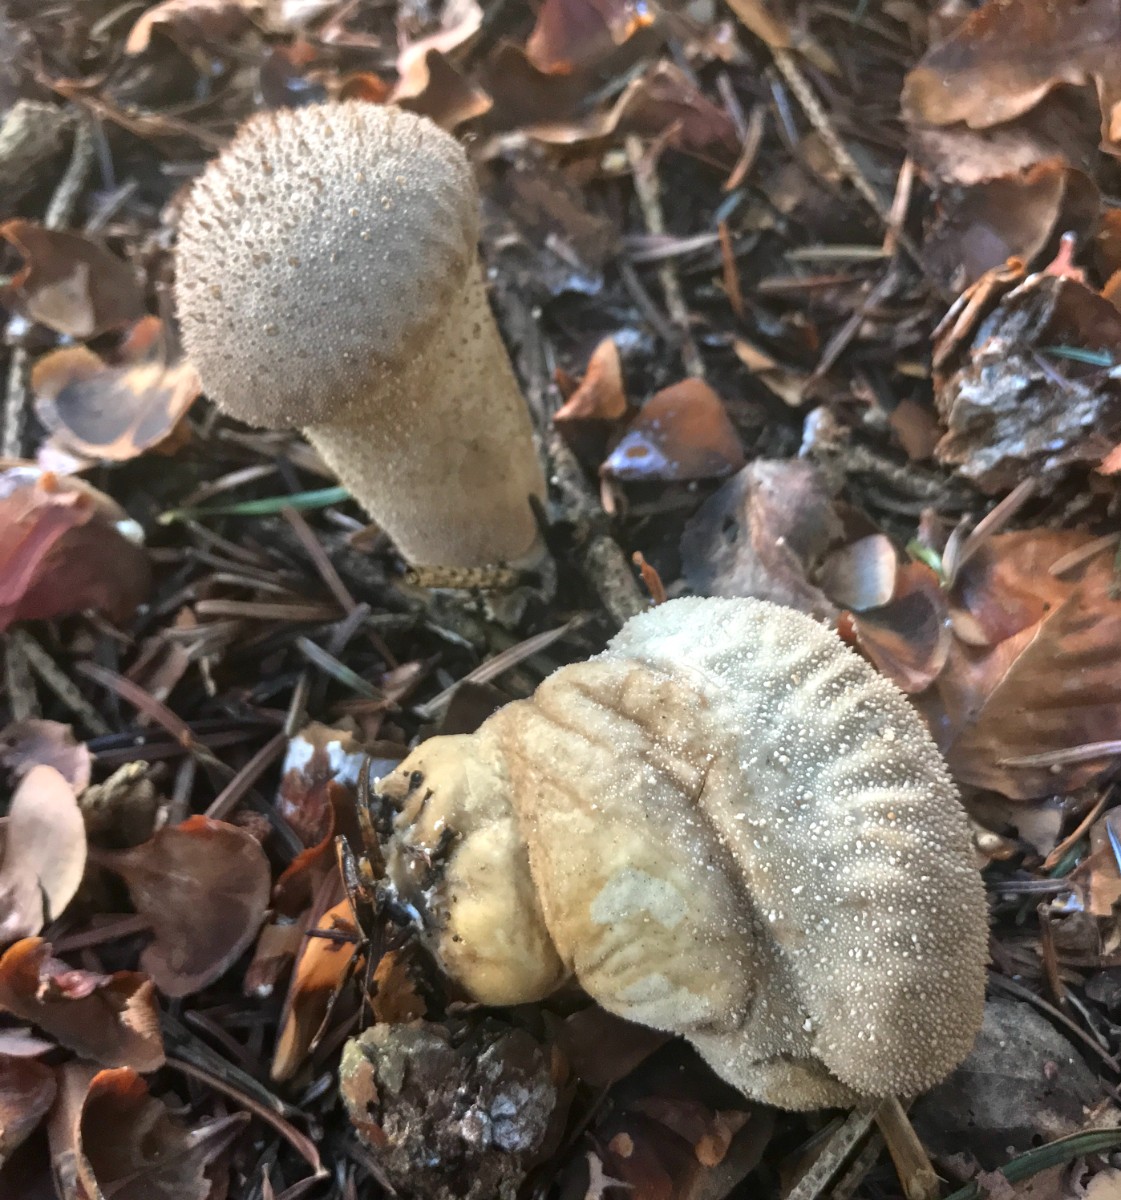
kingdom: Fungi
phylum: Basidiomycota
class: Agaricomycetes
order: Agaricales
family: Lycoperdaceae
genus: Lycoperdon
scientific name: Lycoperdon excipuliforme
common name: højstokket støvbold
